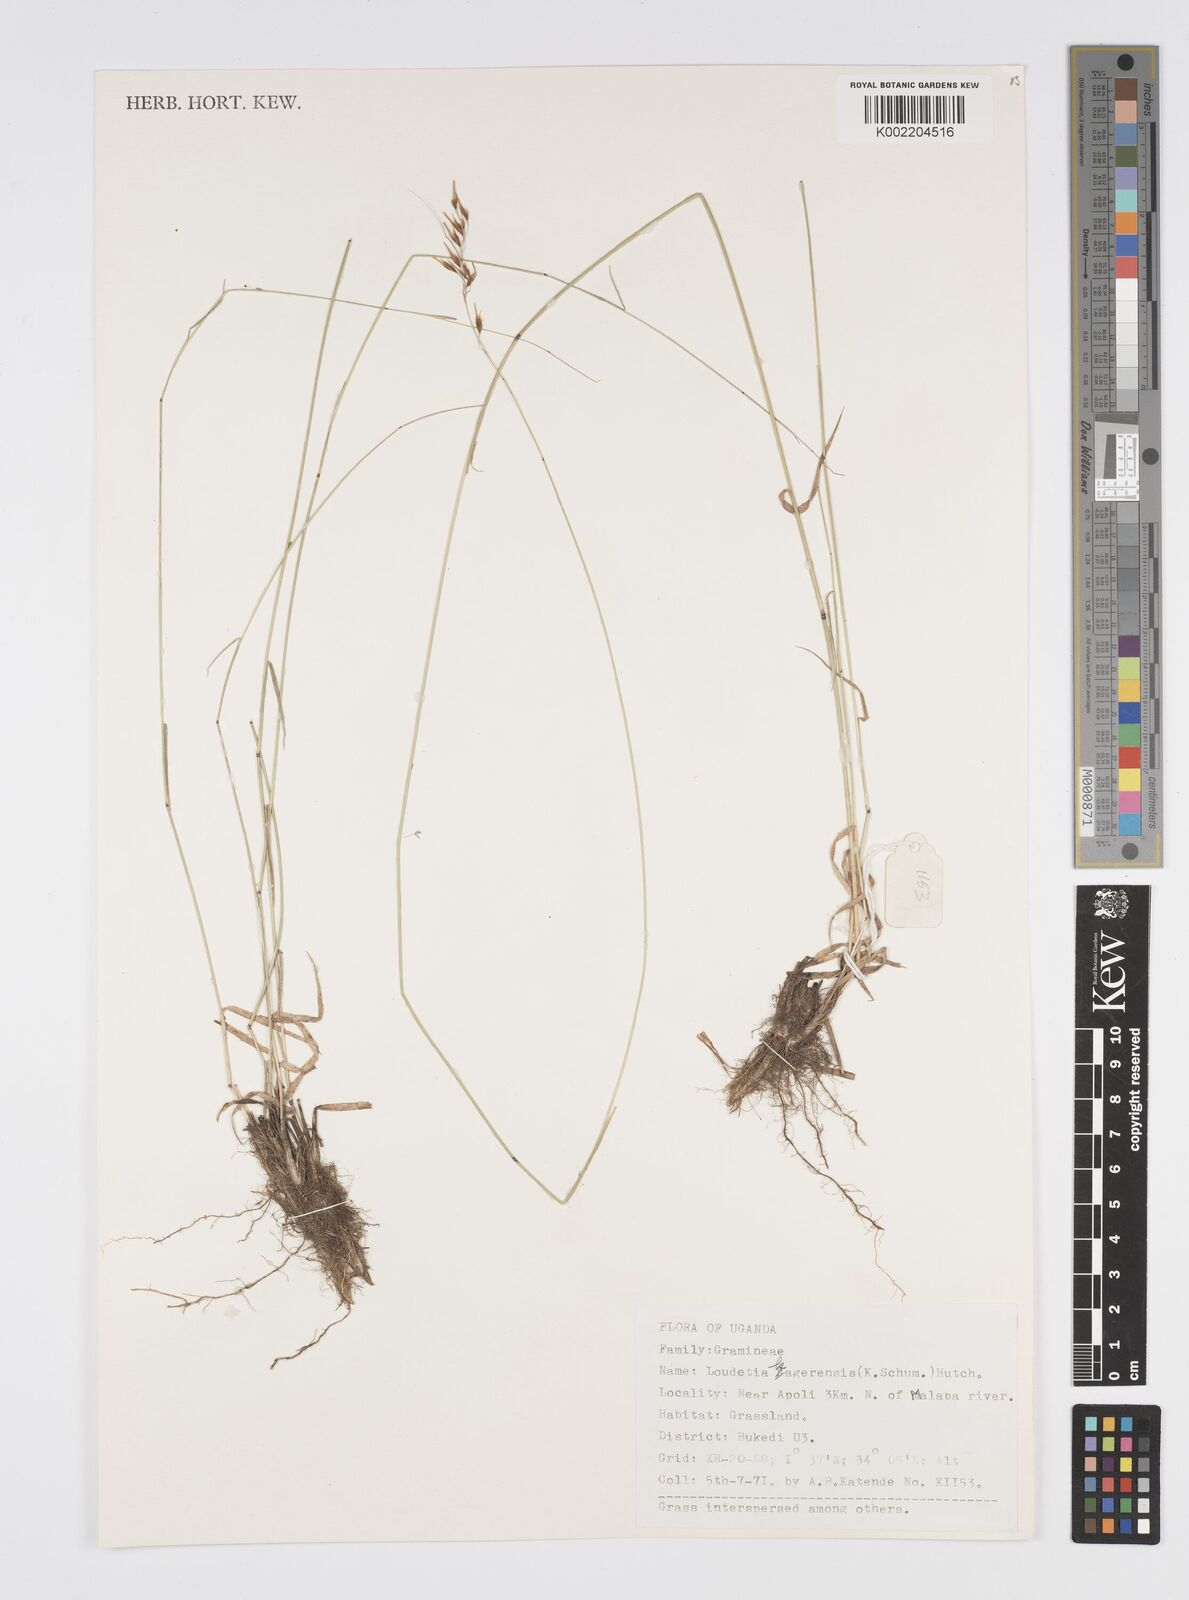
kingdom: Plantae
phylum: Tracheophyta
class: Liliopsida
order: Poales
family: Poaceae
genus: Loudetia
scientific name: Loudetia kagerensis
